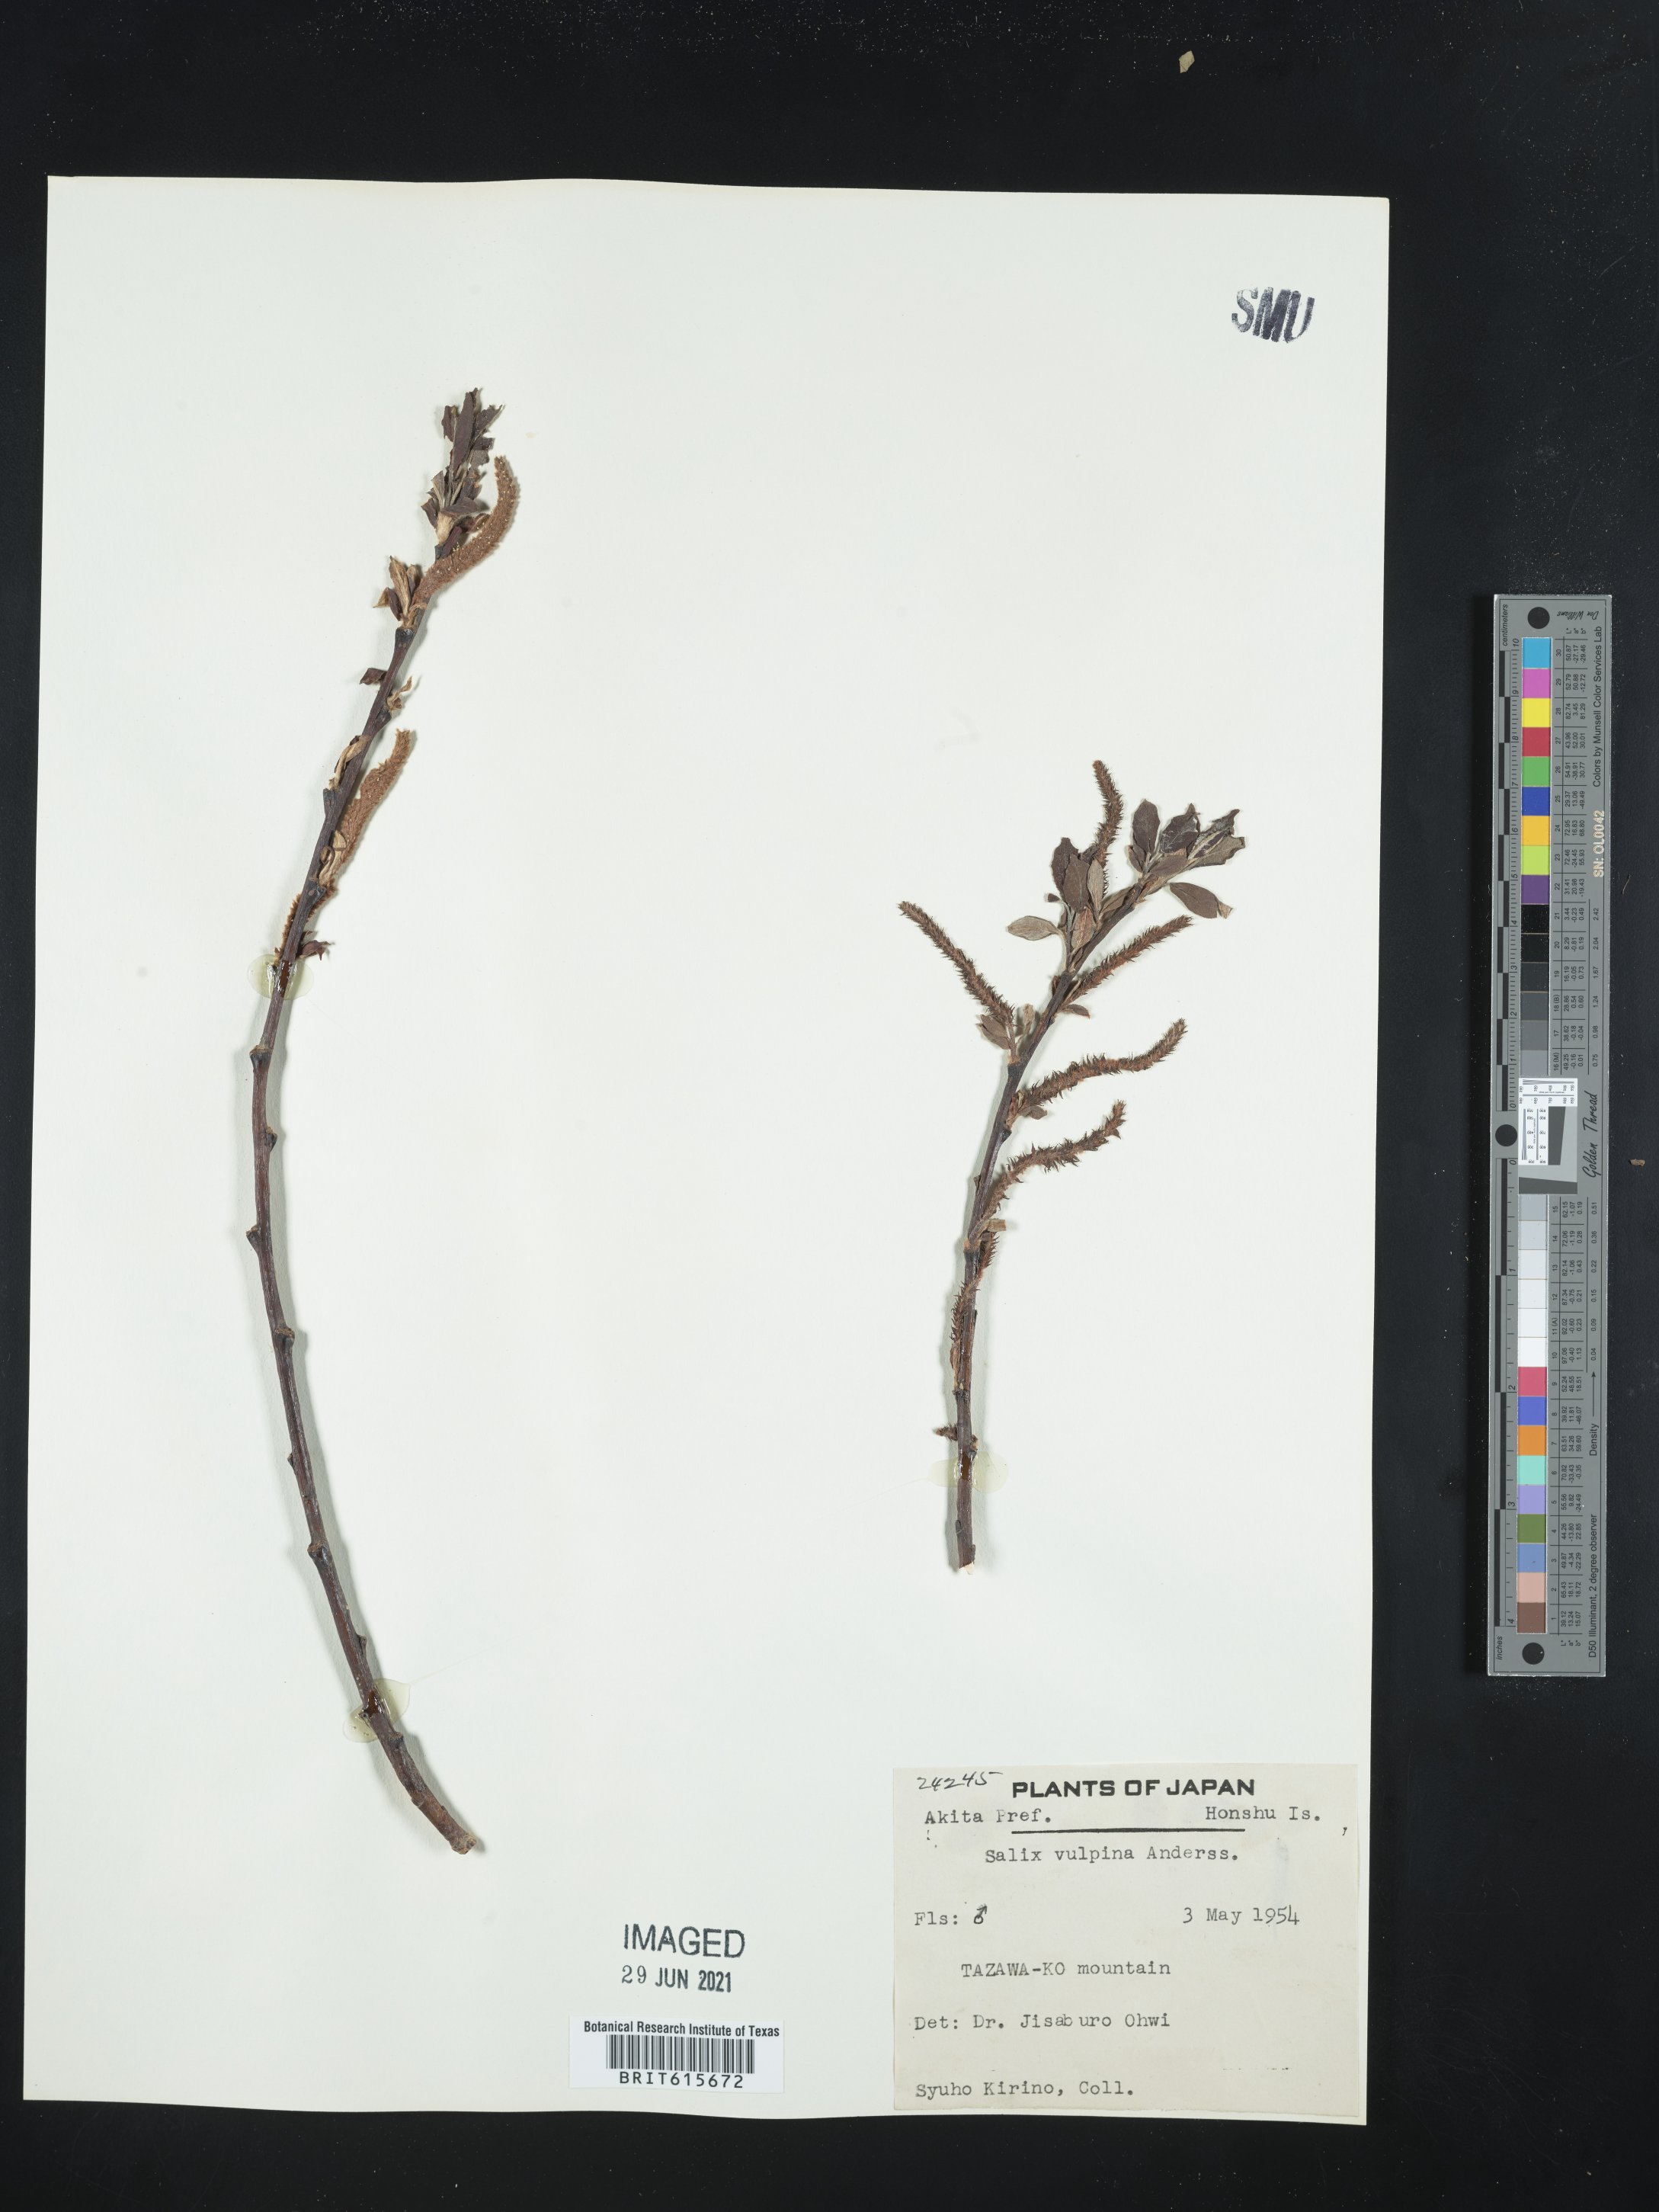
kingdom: Plantae
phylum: Tracheophyta
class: Magnoliopsida
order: Malpighiales
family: Salicaceae
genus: Salix
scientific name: Salix vulpina
